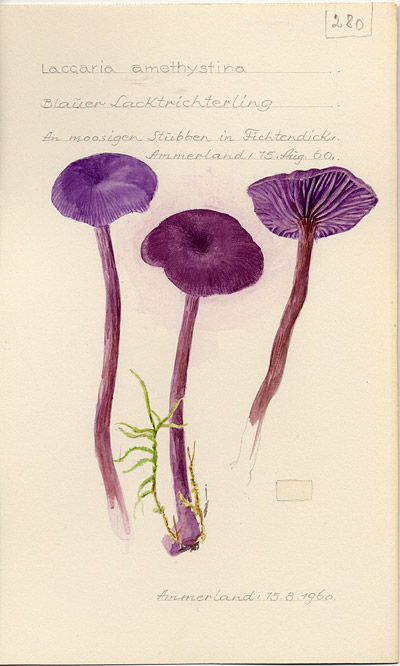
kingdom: Fungi
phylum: Basidiomycota
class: Agaricomycetes
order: Agaricales
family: Hydnangiaceae
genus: Laccaria
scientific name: Laccaria laccata
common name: Deceiver
